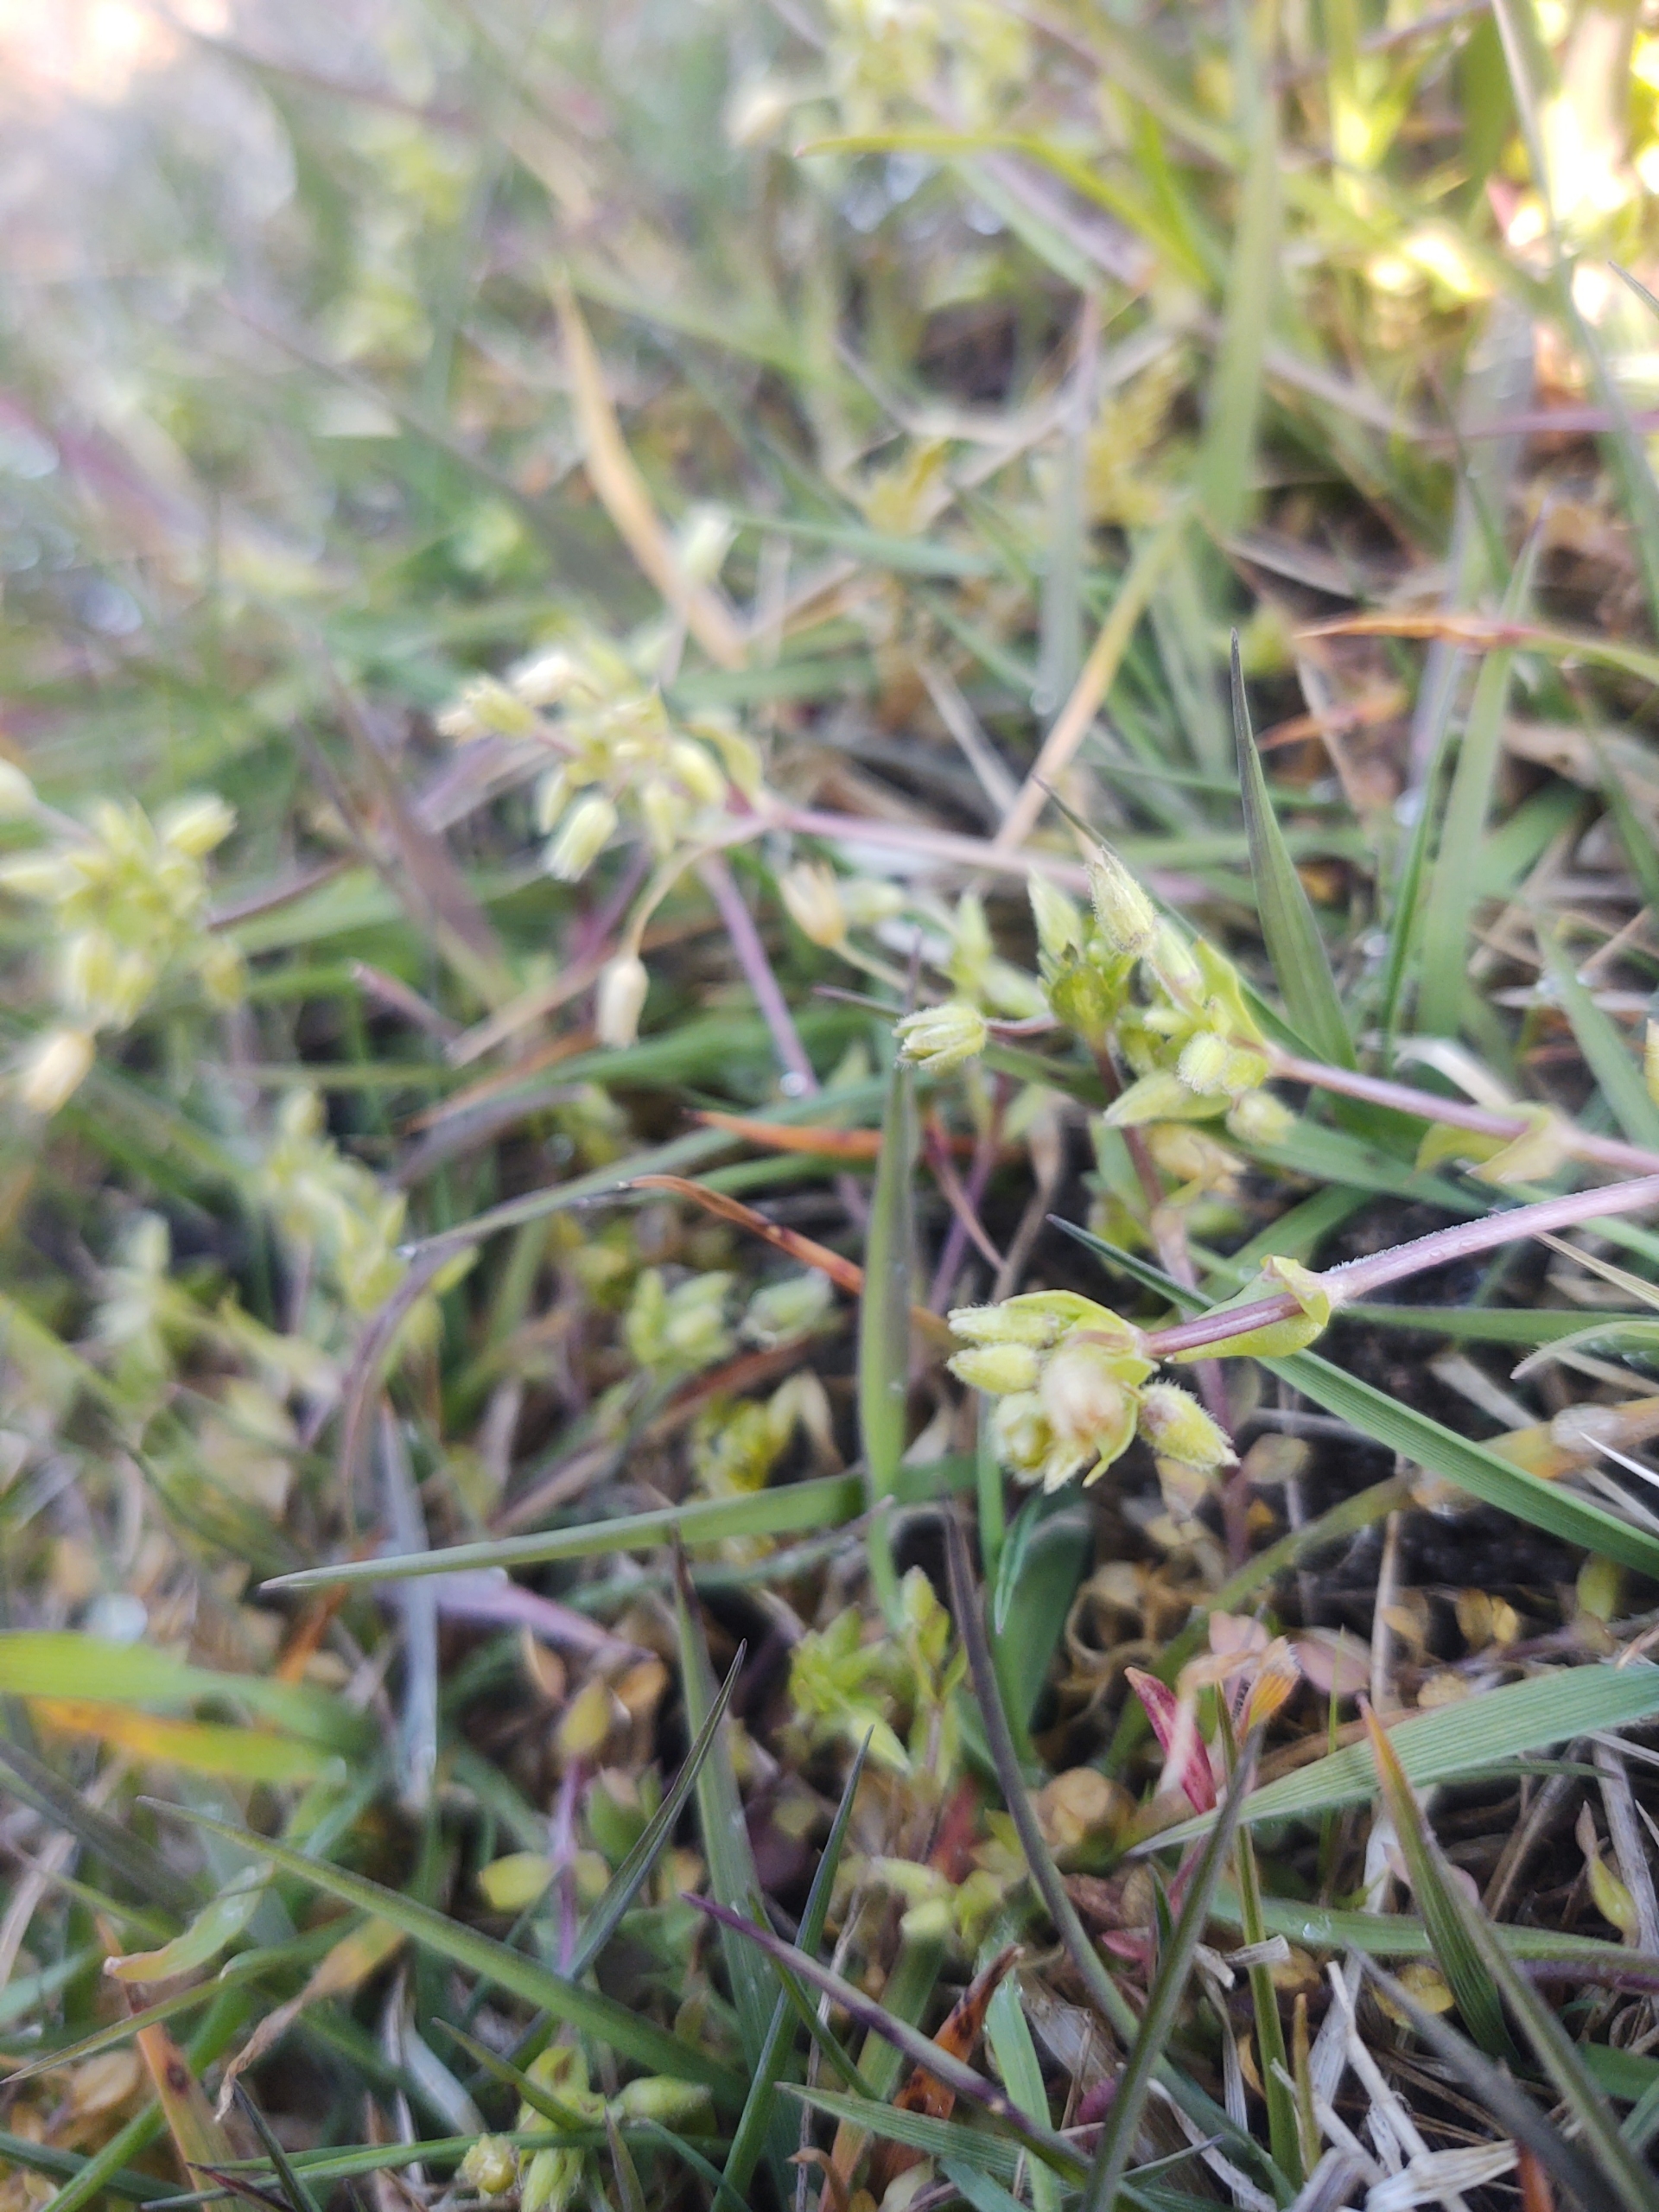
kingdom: Plantae
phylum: Tracheophyta
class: Magnoliopsida
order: Caryophyllales
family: Caryophyllaceae
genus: Stellaria
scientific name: Stellaria apetala
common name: Bleg fuglegræs
